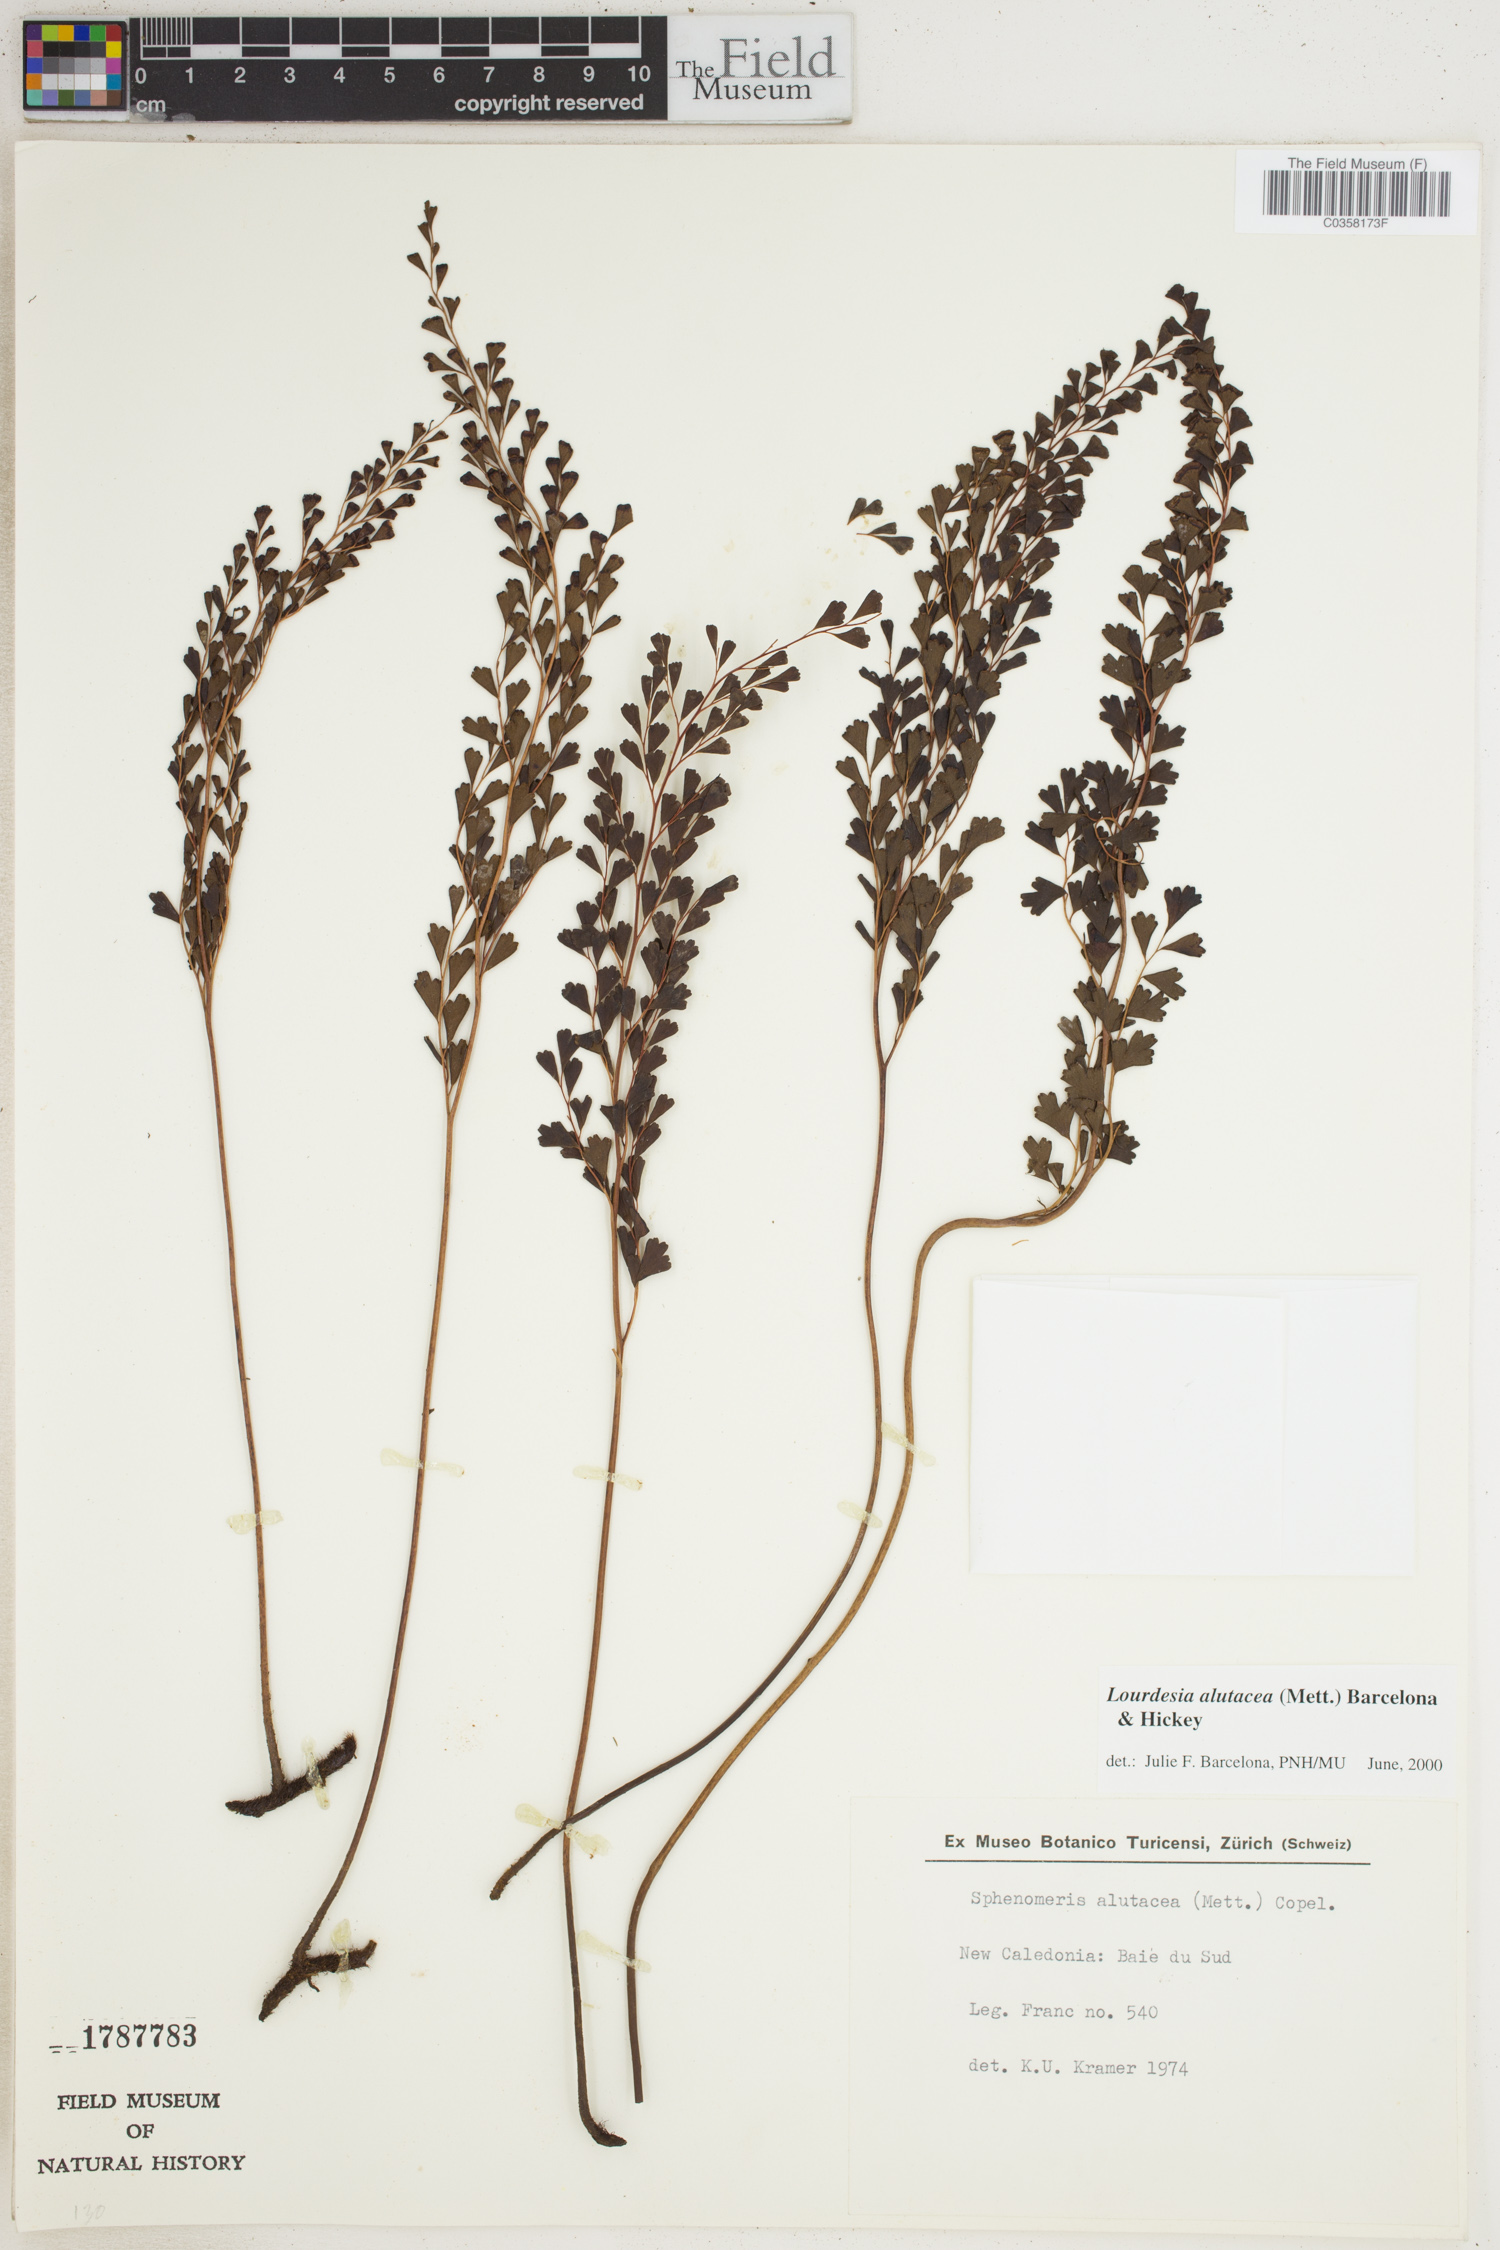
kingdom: Plantae
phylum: Tracheophyta
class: Polypodiopsida
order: Polypodiales
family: Lindsaeaceae
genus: Odontosoria
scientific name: Odontosoria alutacea
